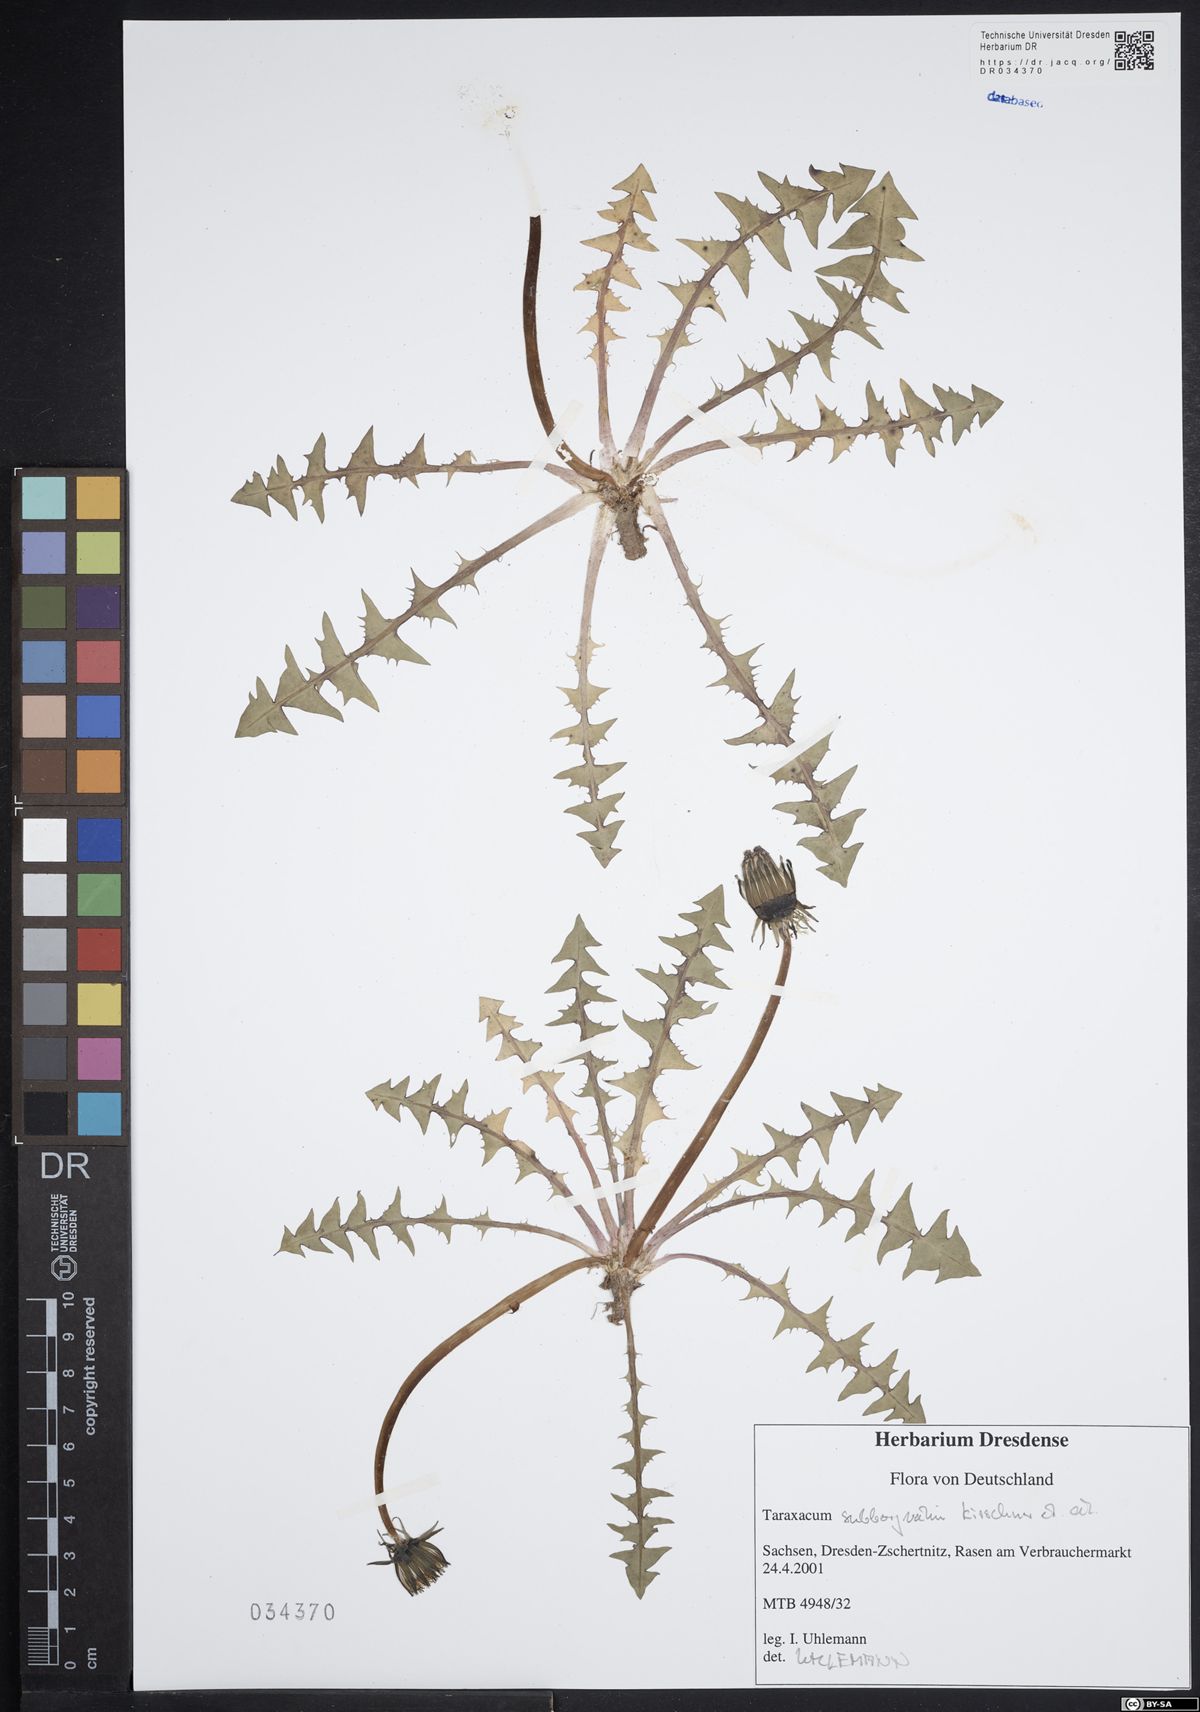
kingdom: Plantae
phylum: Tracheophyta
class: Magnoliopsida
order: Asterales
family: Asteraceae
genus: Taraxacum
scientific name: Taraxacum subborgvallii
